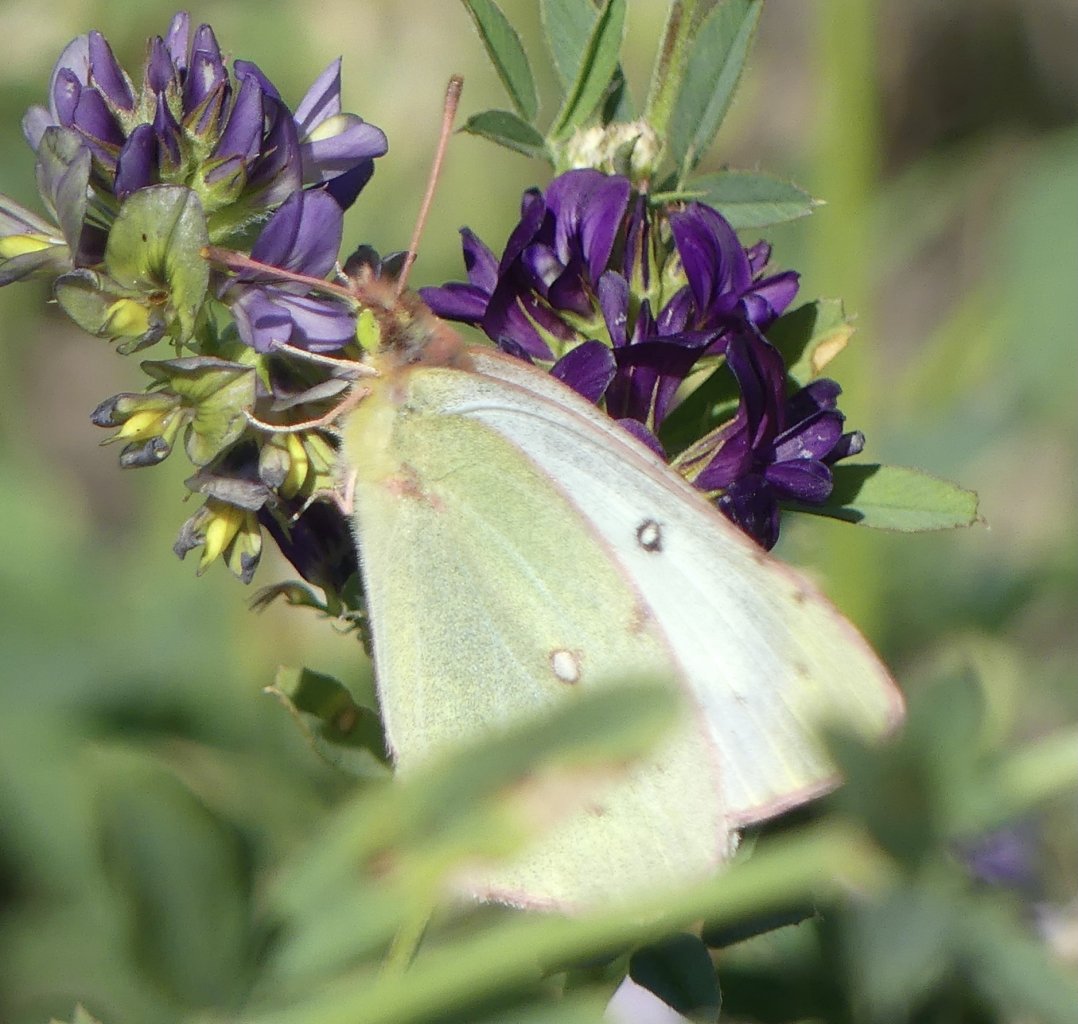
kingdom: Animalia
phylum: Arthropoda
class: Insecta
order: Lepidoptera
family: Pieridae
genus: Colias
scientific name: Colias philodice
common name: Clouded Sulphur
